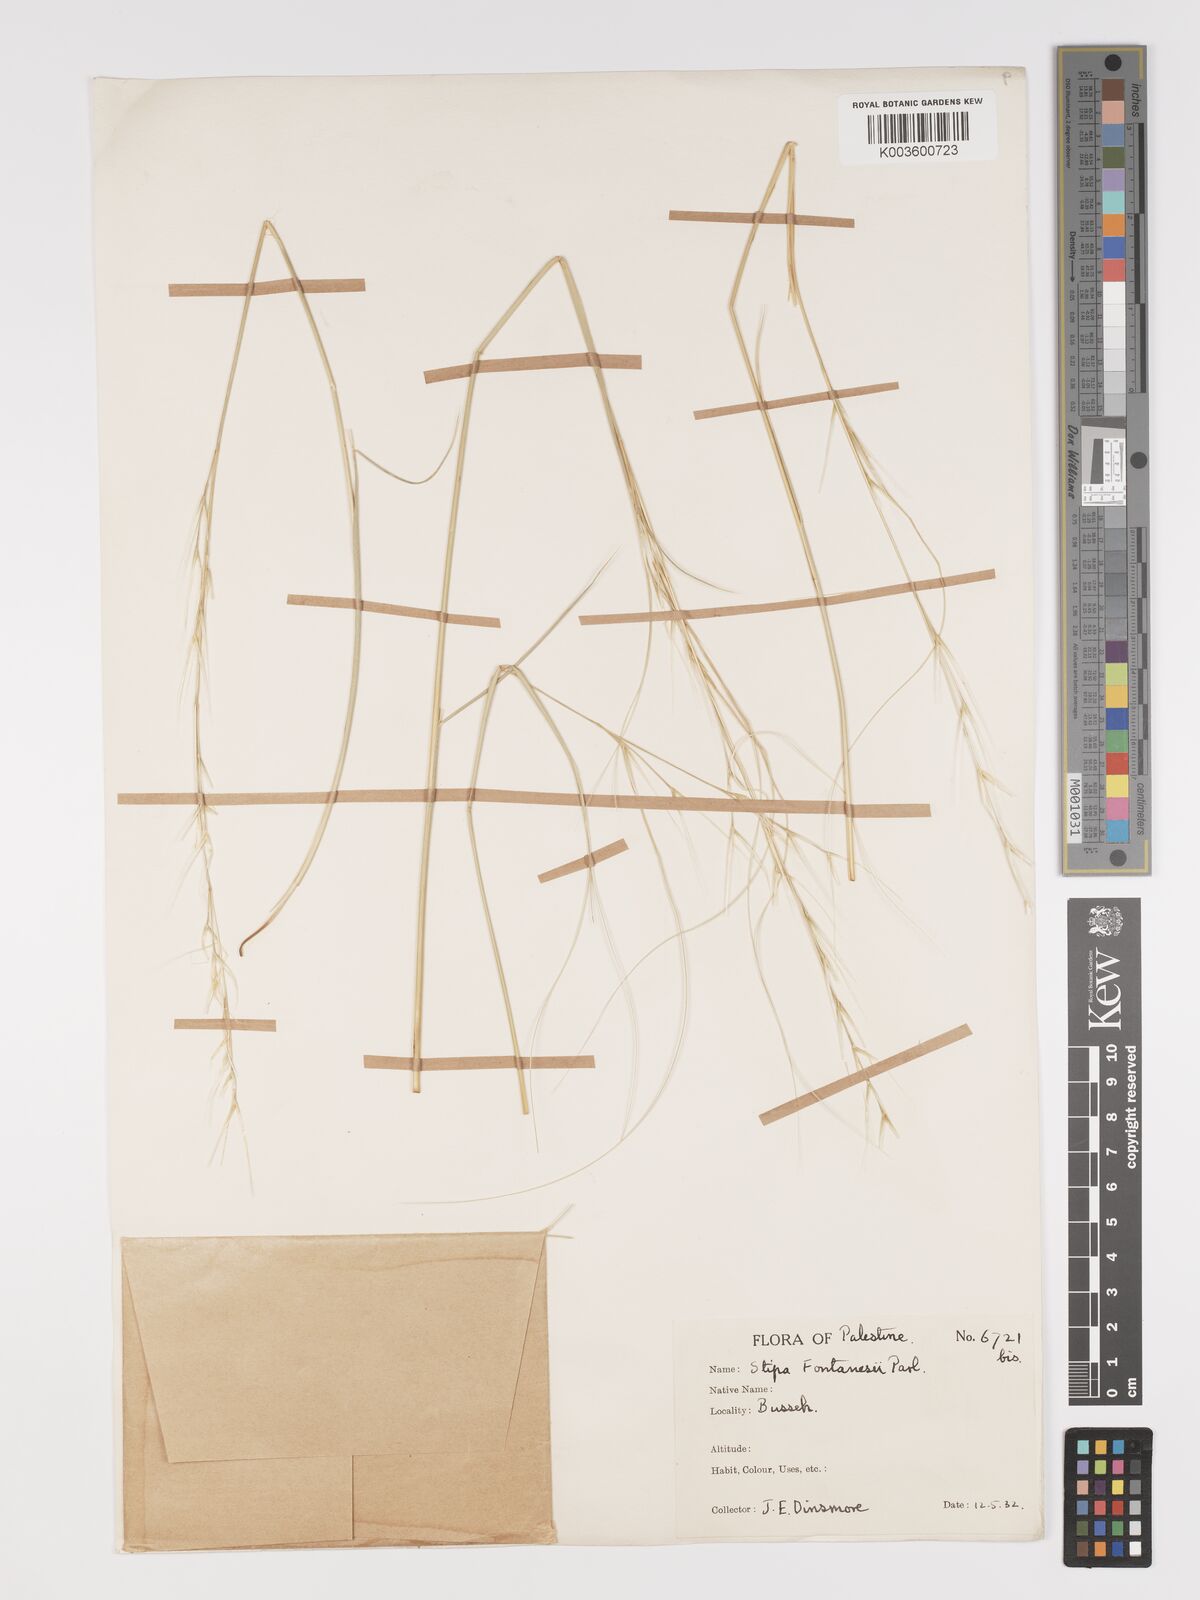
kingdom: Plantae
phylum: Tracheophyta
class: Liliopsida
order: Poales
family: Poaceae
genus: Stipa
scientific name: Stipa holosericea
